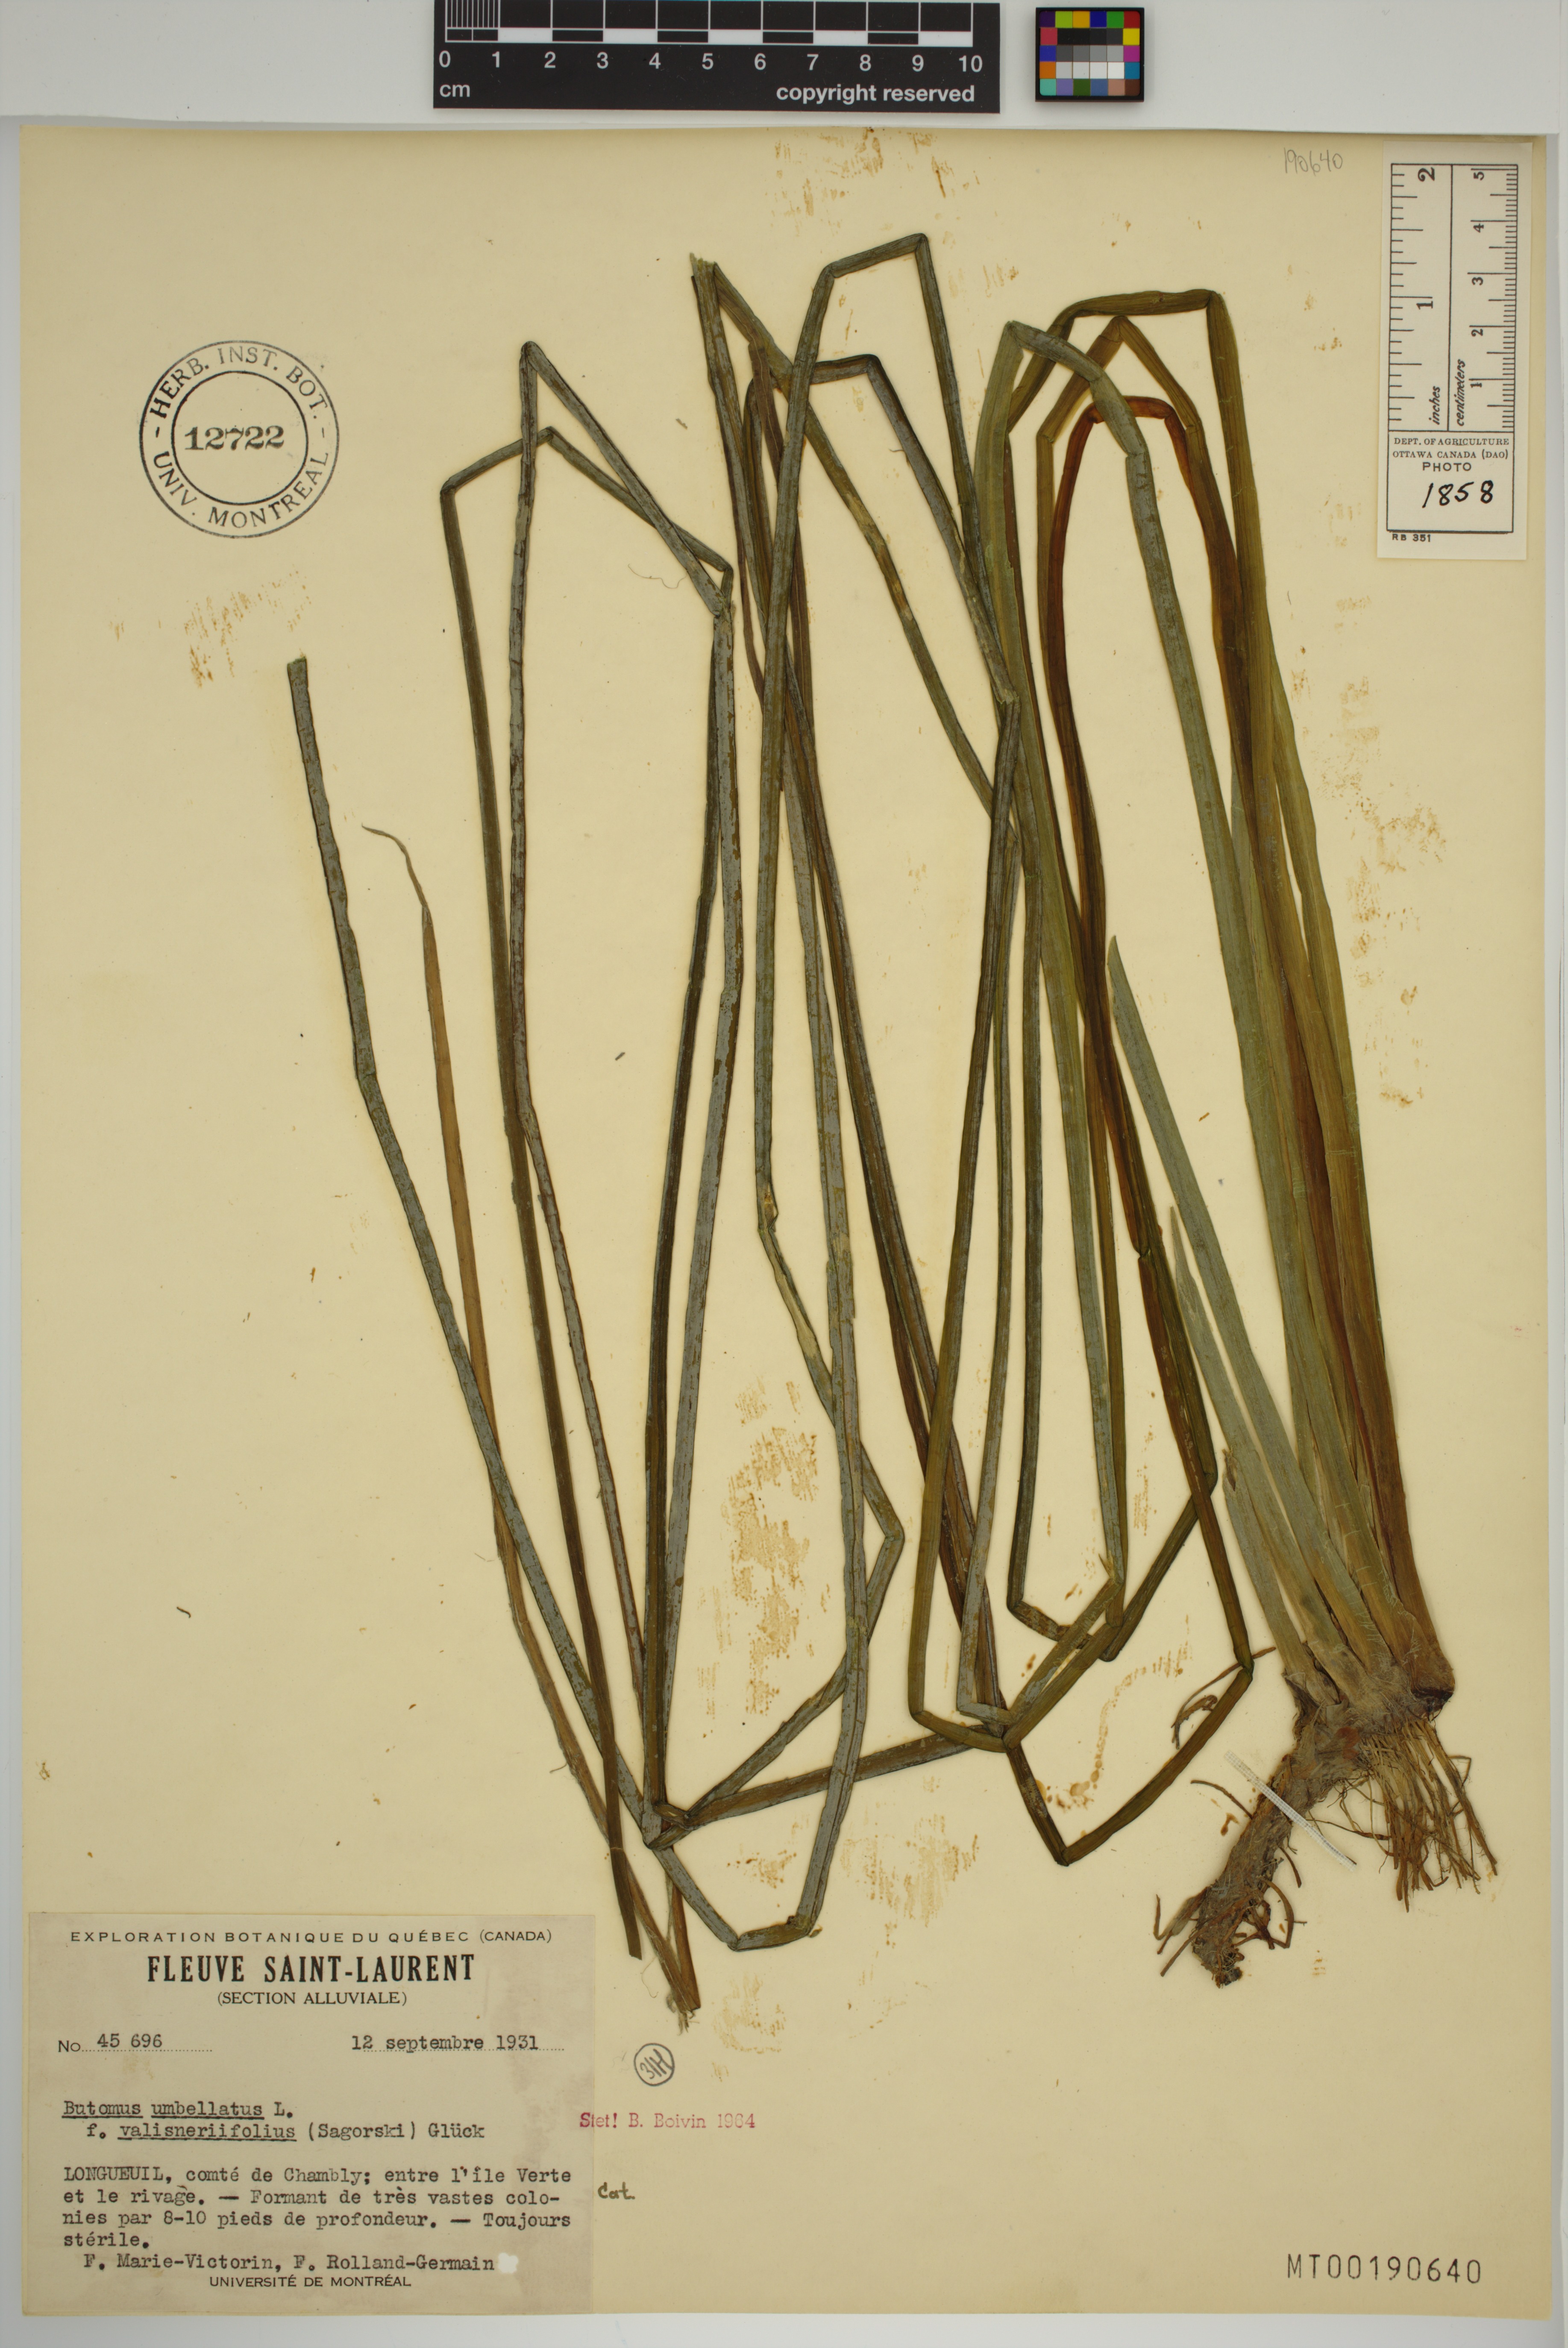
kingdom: Plantae
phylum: Tracheophyta
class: Liliopsida
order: Alismatales
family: Butomaceae
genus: Butomus
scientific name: Butomus umbellatus
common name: Flowering-rush
